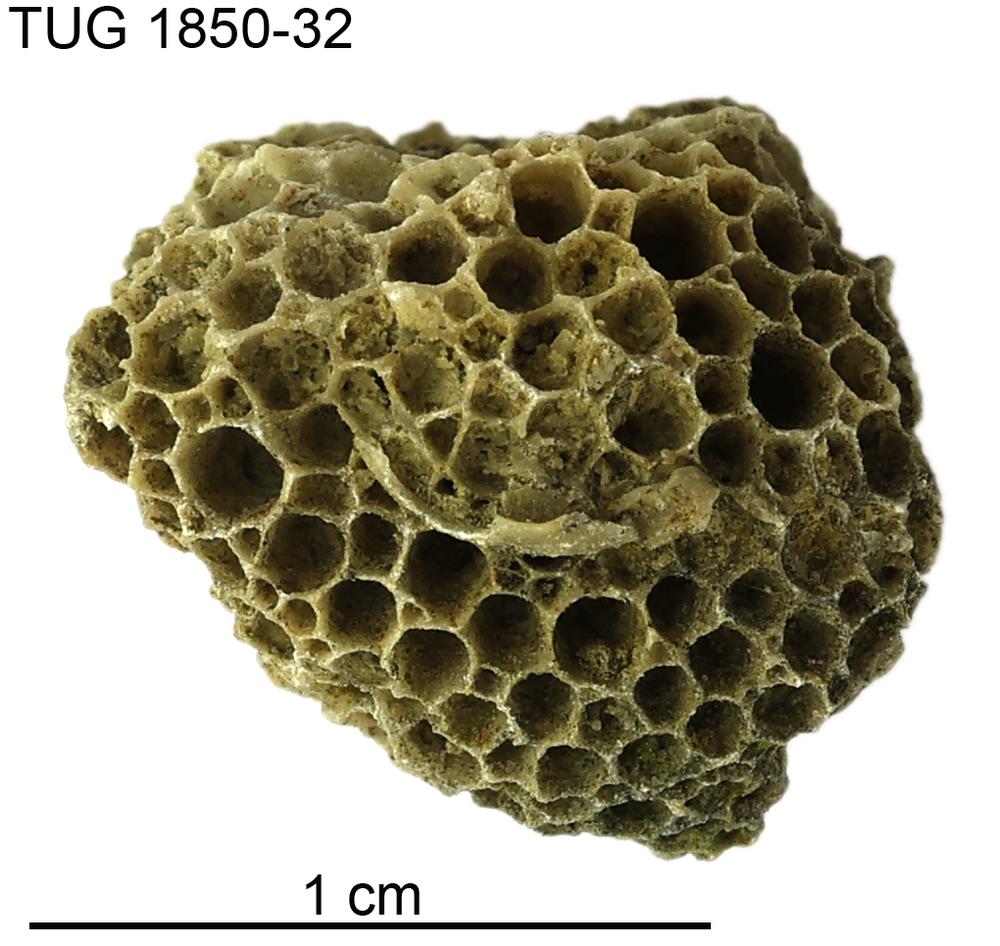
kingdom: Animalia
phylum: Cnidaria
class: Anthozoa
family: Favositidae
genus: Favosites
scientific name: Favosites
